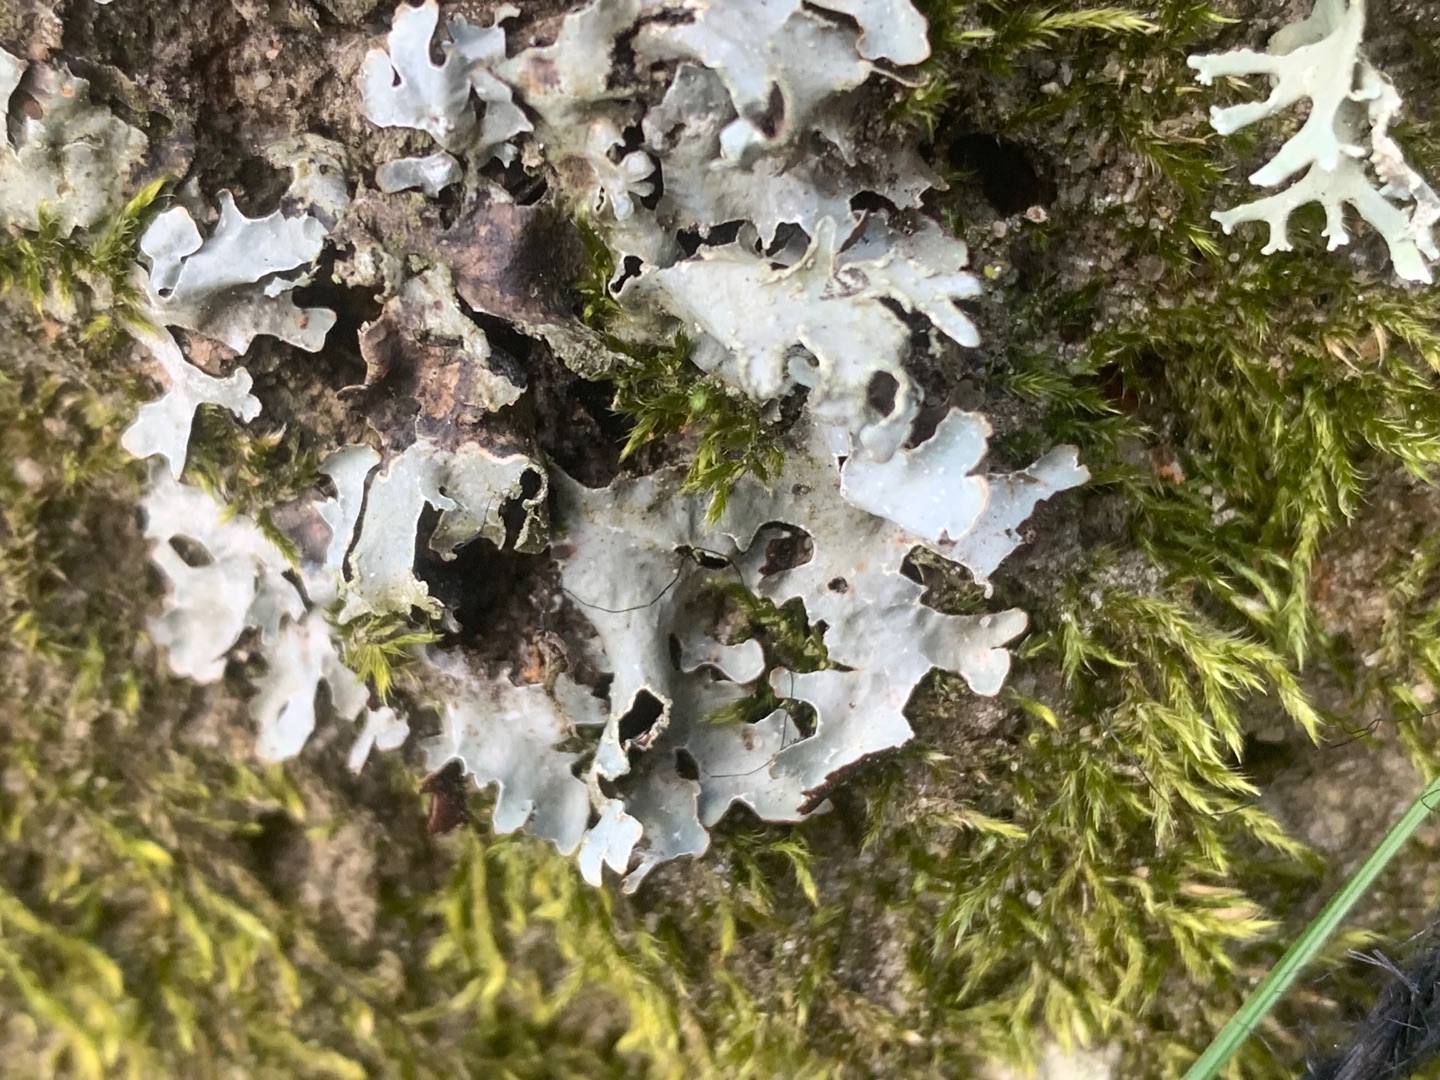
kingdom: Fungi
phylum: Ascomycota
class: Lecanoromycetes
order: Lecanorales
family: Parmeliaceae
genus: Parmelia
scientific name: Parmelia sulcata
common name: Rynket skållav
